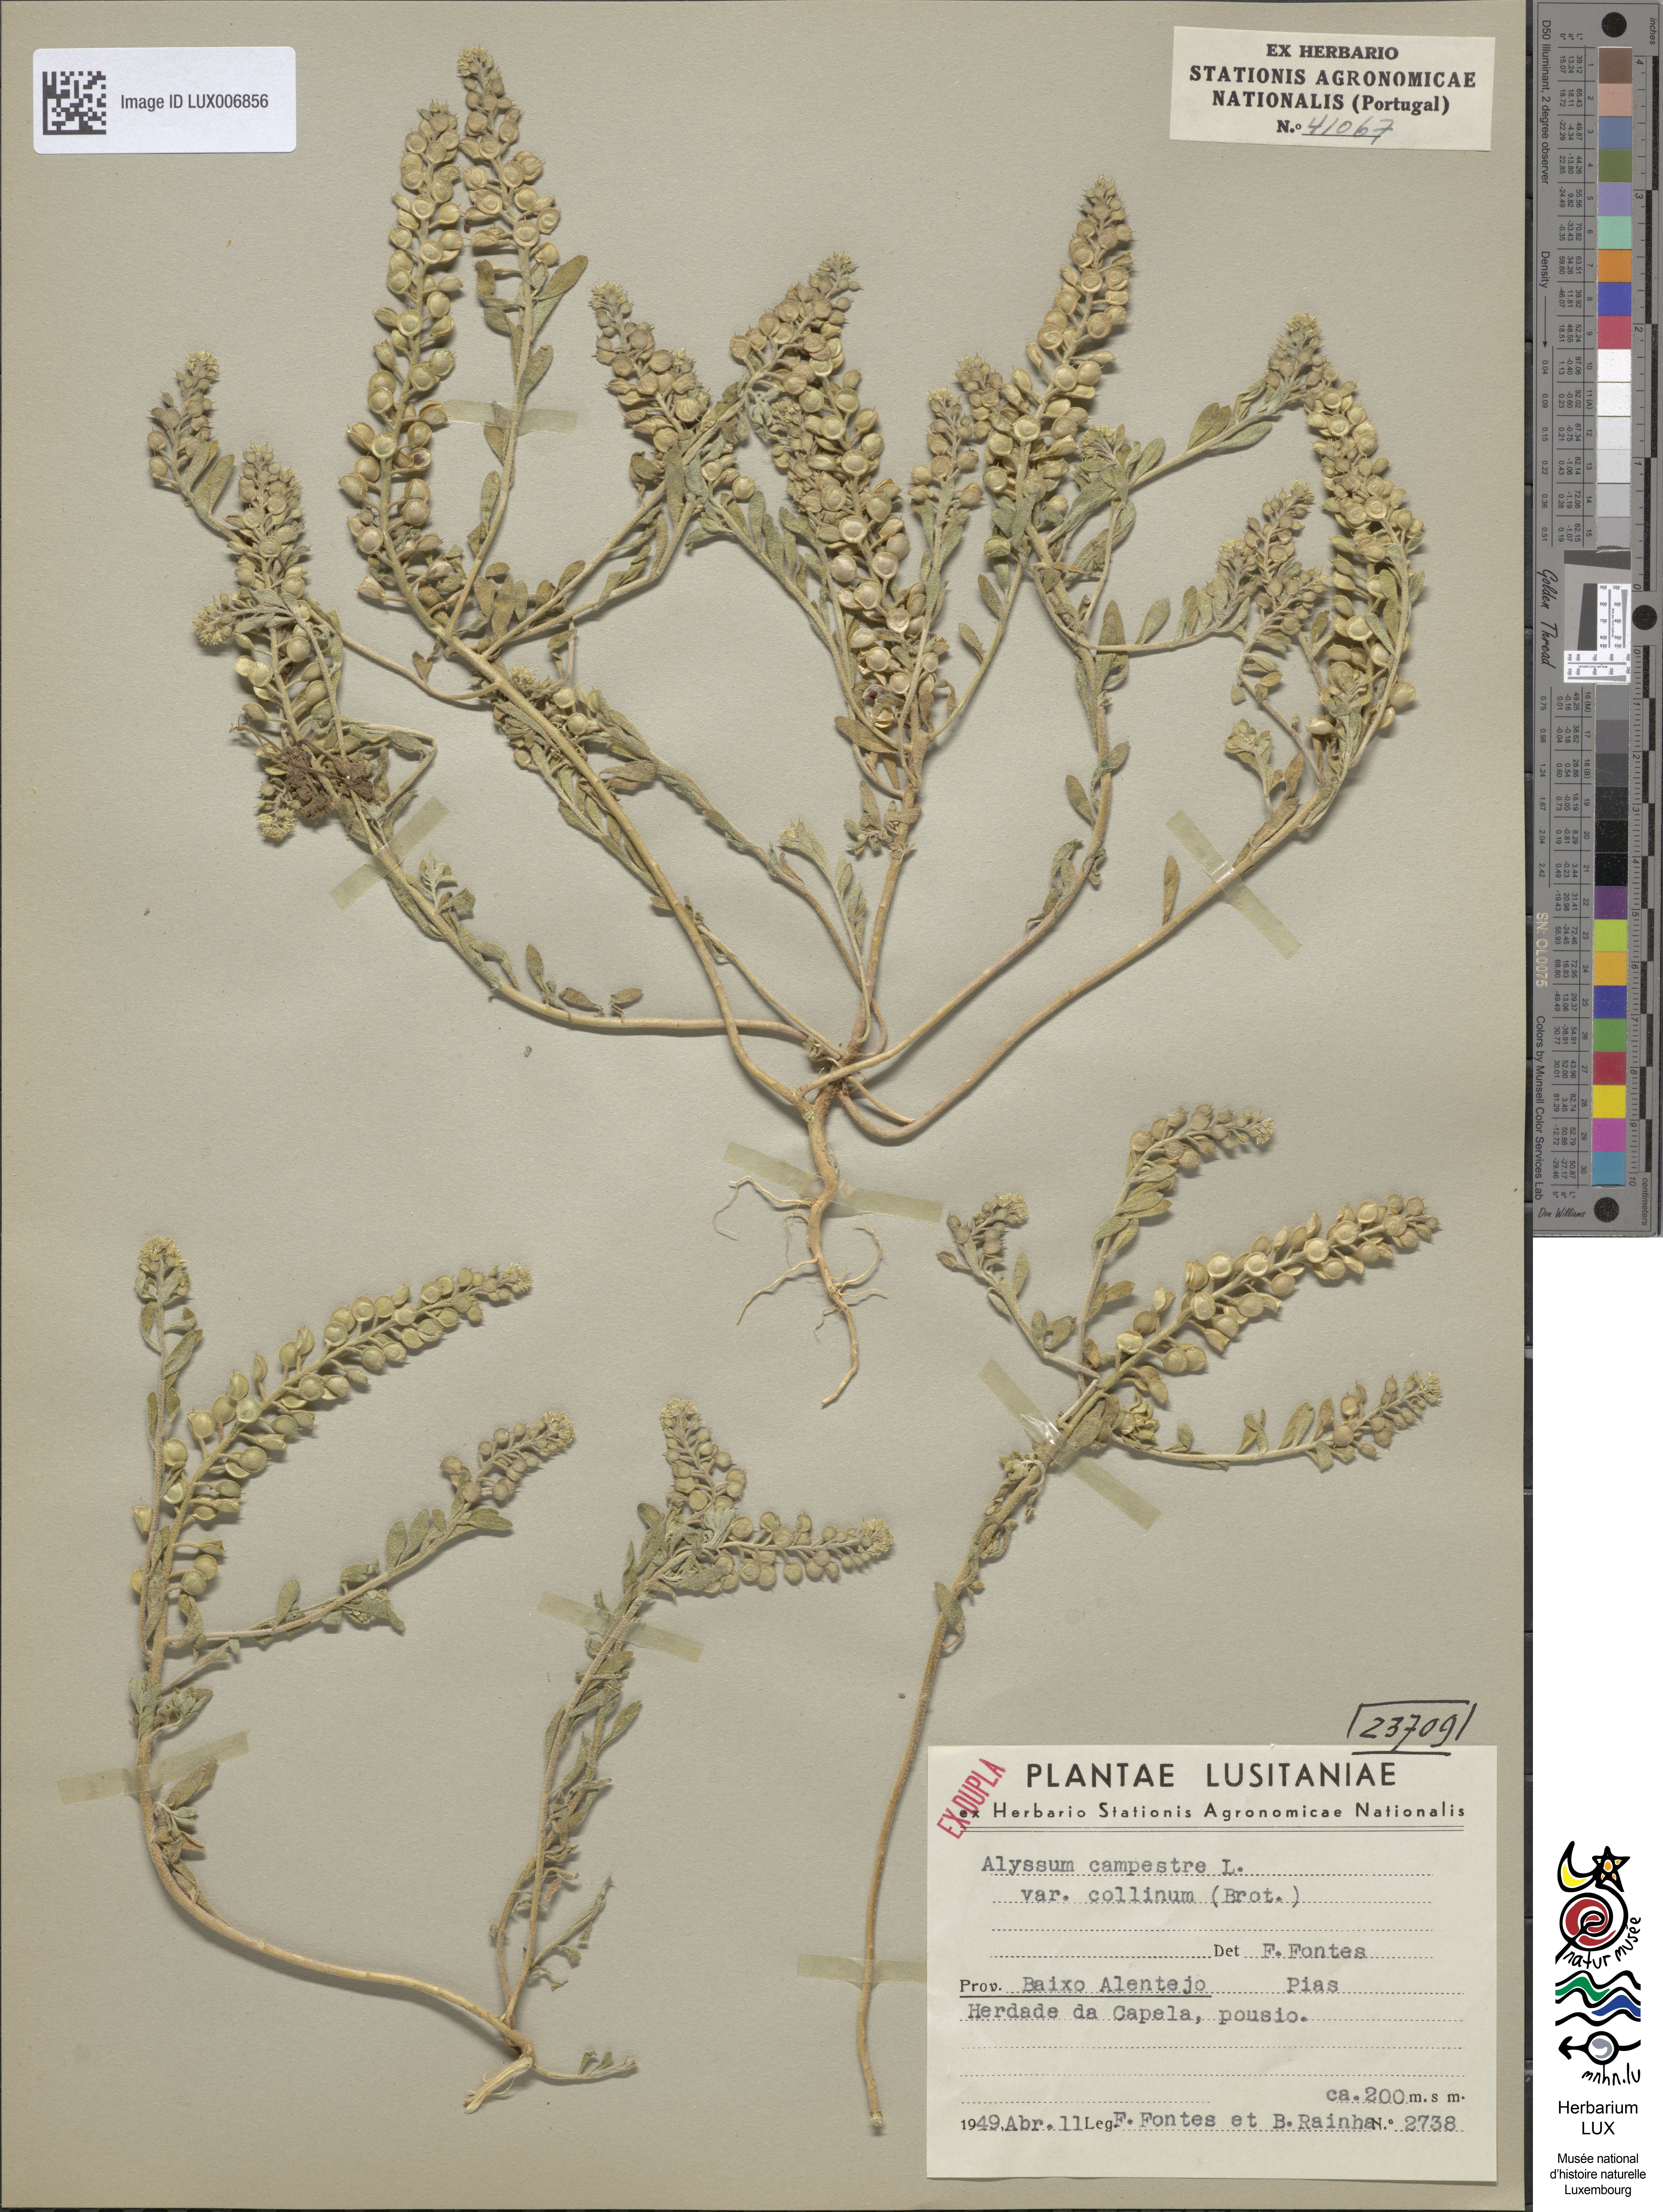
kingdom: Plantae
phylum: Tracheophyta
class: Magnoliopsida
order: Brassicales
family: Brassicaceae
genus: Alyssum
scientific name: Alyssum simplex
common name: Alyssum
